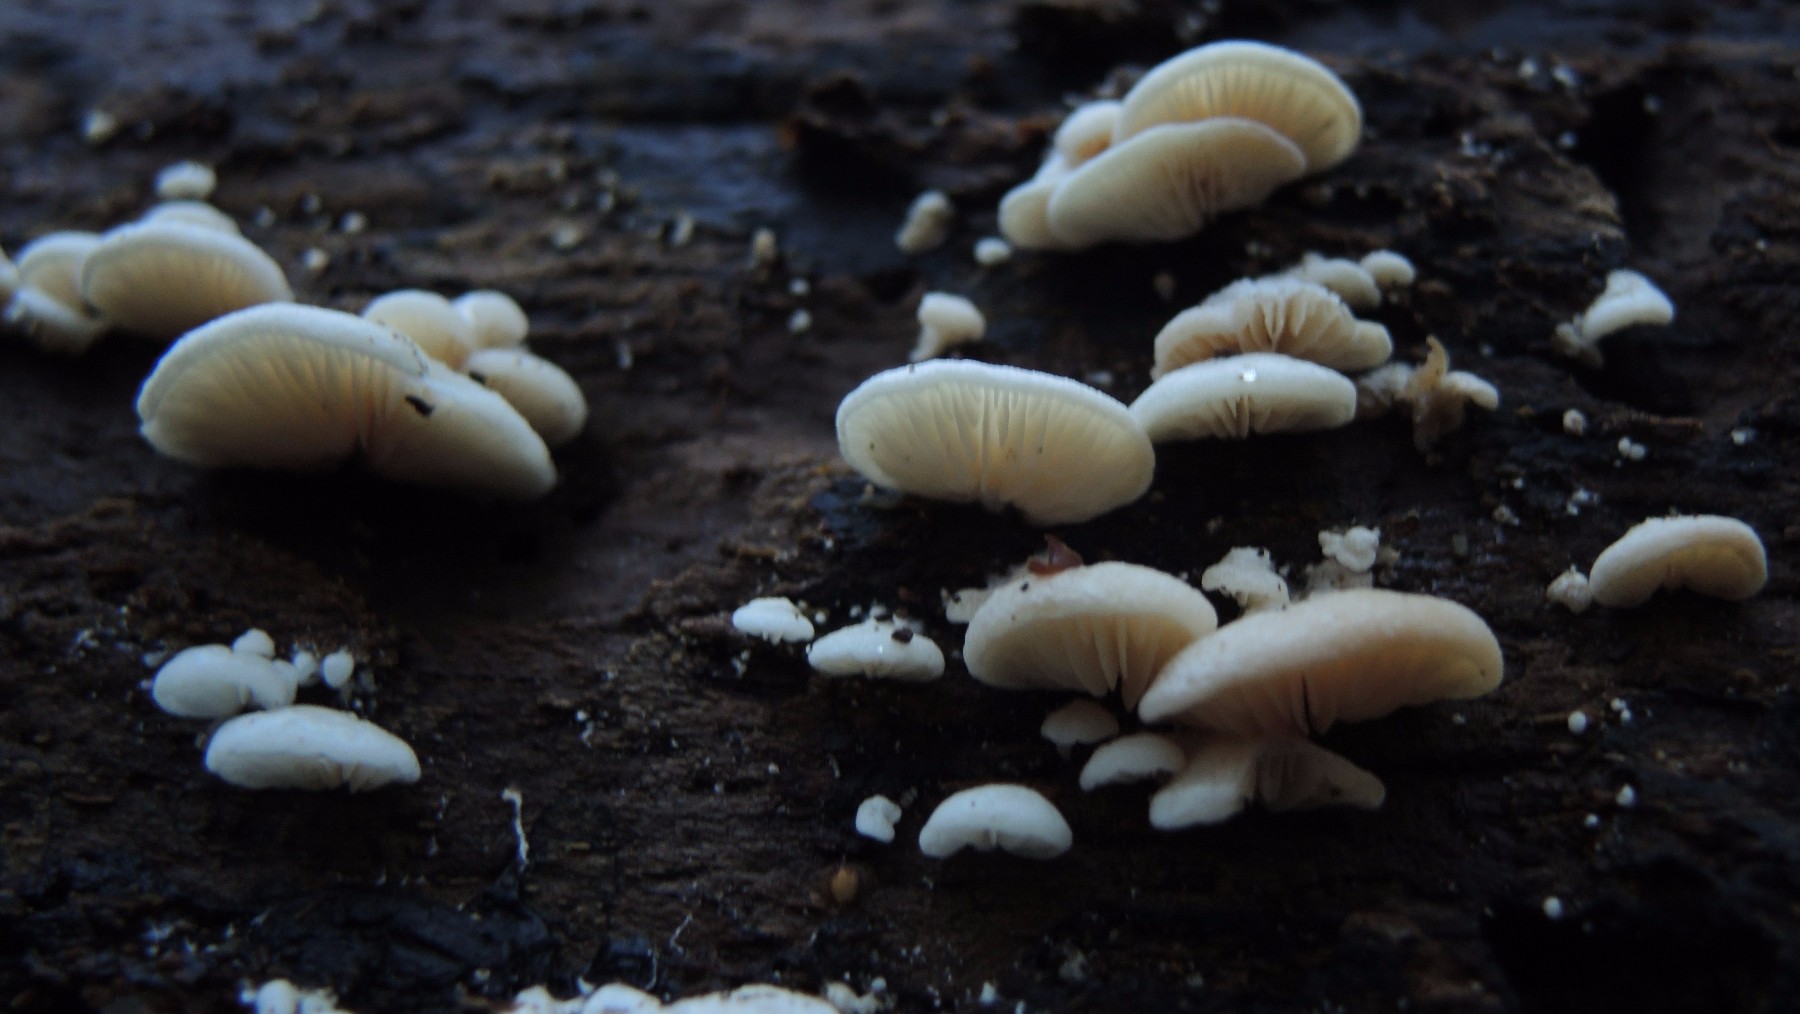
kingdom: Fungi
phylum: Basidiomycota
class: Agaricomycetes
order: Agaricales
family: Entolomataceae
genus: Clitopilus
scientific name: Clitopilus hobsonii
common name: Miller's oysterling
